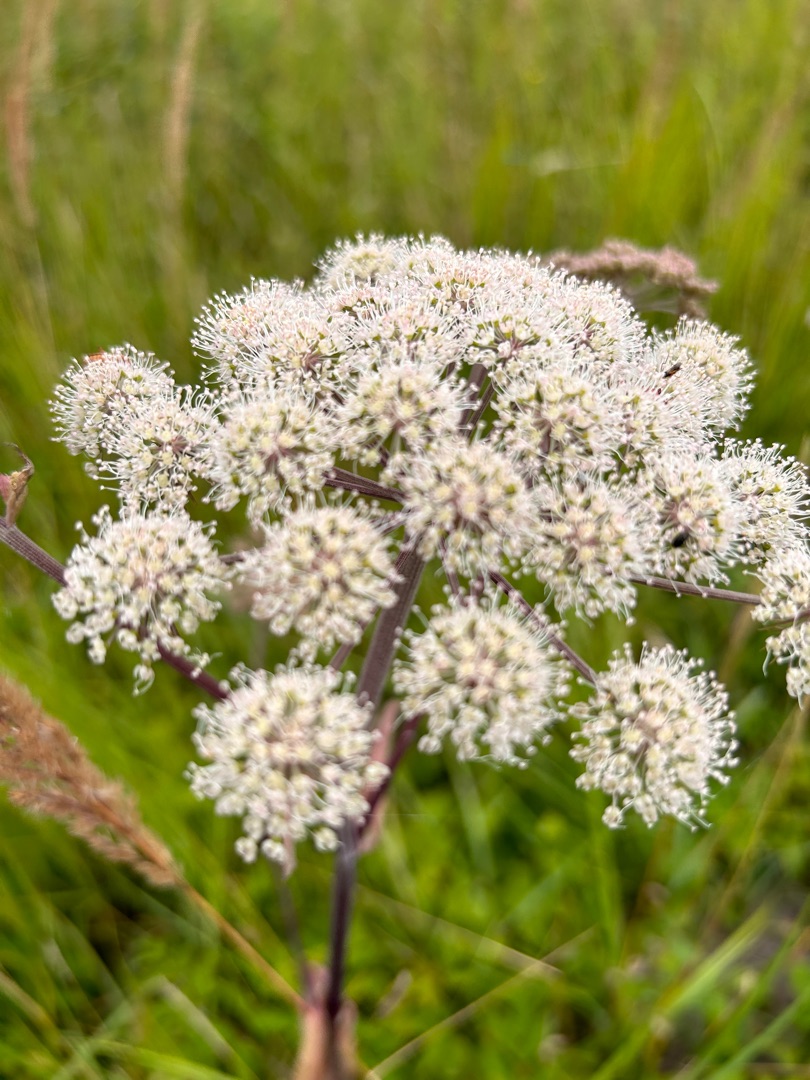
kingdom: Plantae
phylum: Tracheophyta
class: Magnoliopsida
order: Apiales
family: Apiaceae
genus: Angelica
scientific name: Angelica sylvestris
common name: Angelik
